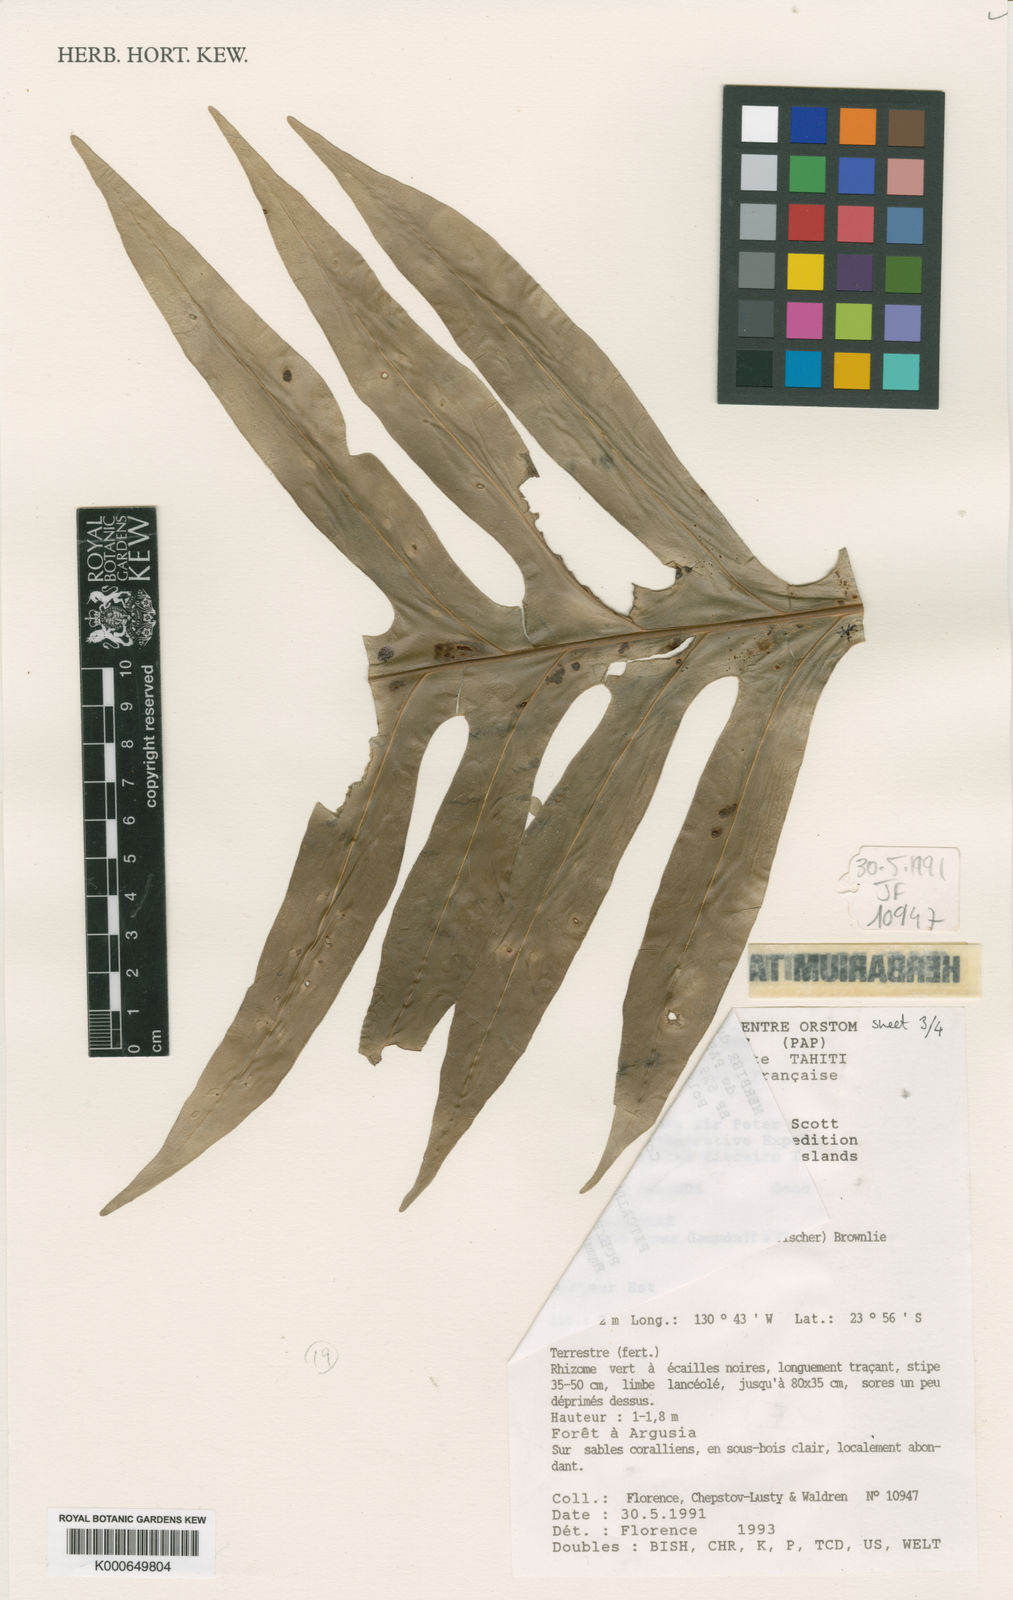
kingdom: Plantae
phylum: Tracheophyta
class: Polypodiopsida
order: Polypodiales
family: Polypodiaceae
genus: Microsorum
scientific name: Microsorum grossum
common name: Musk fern
